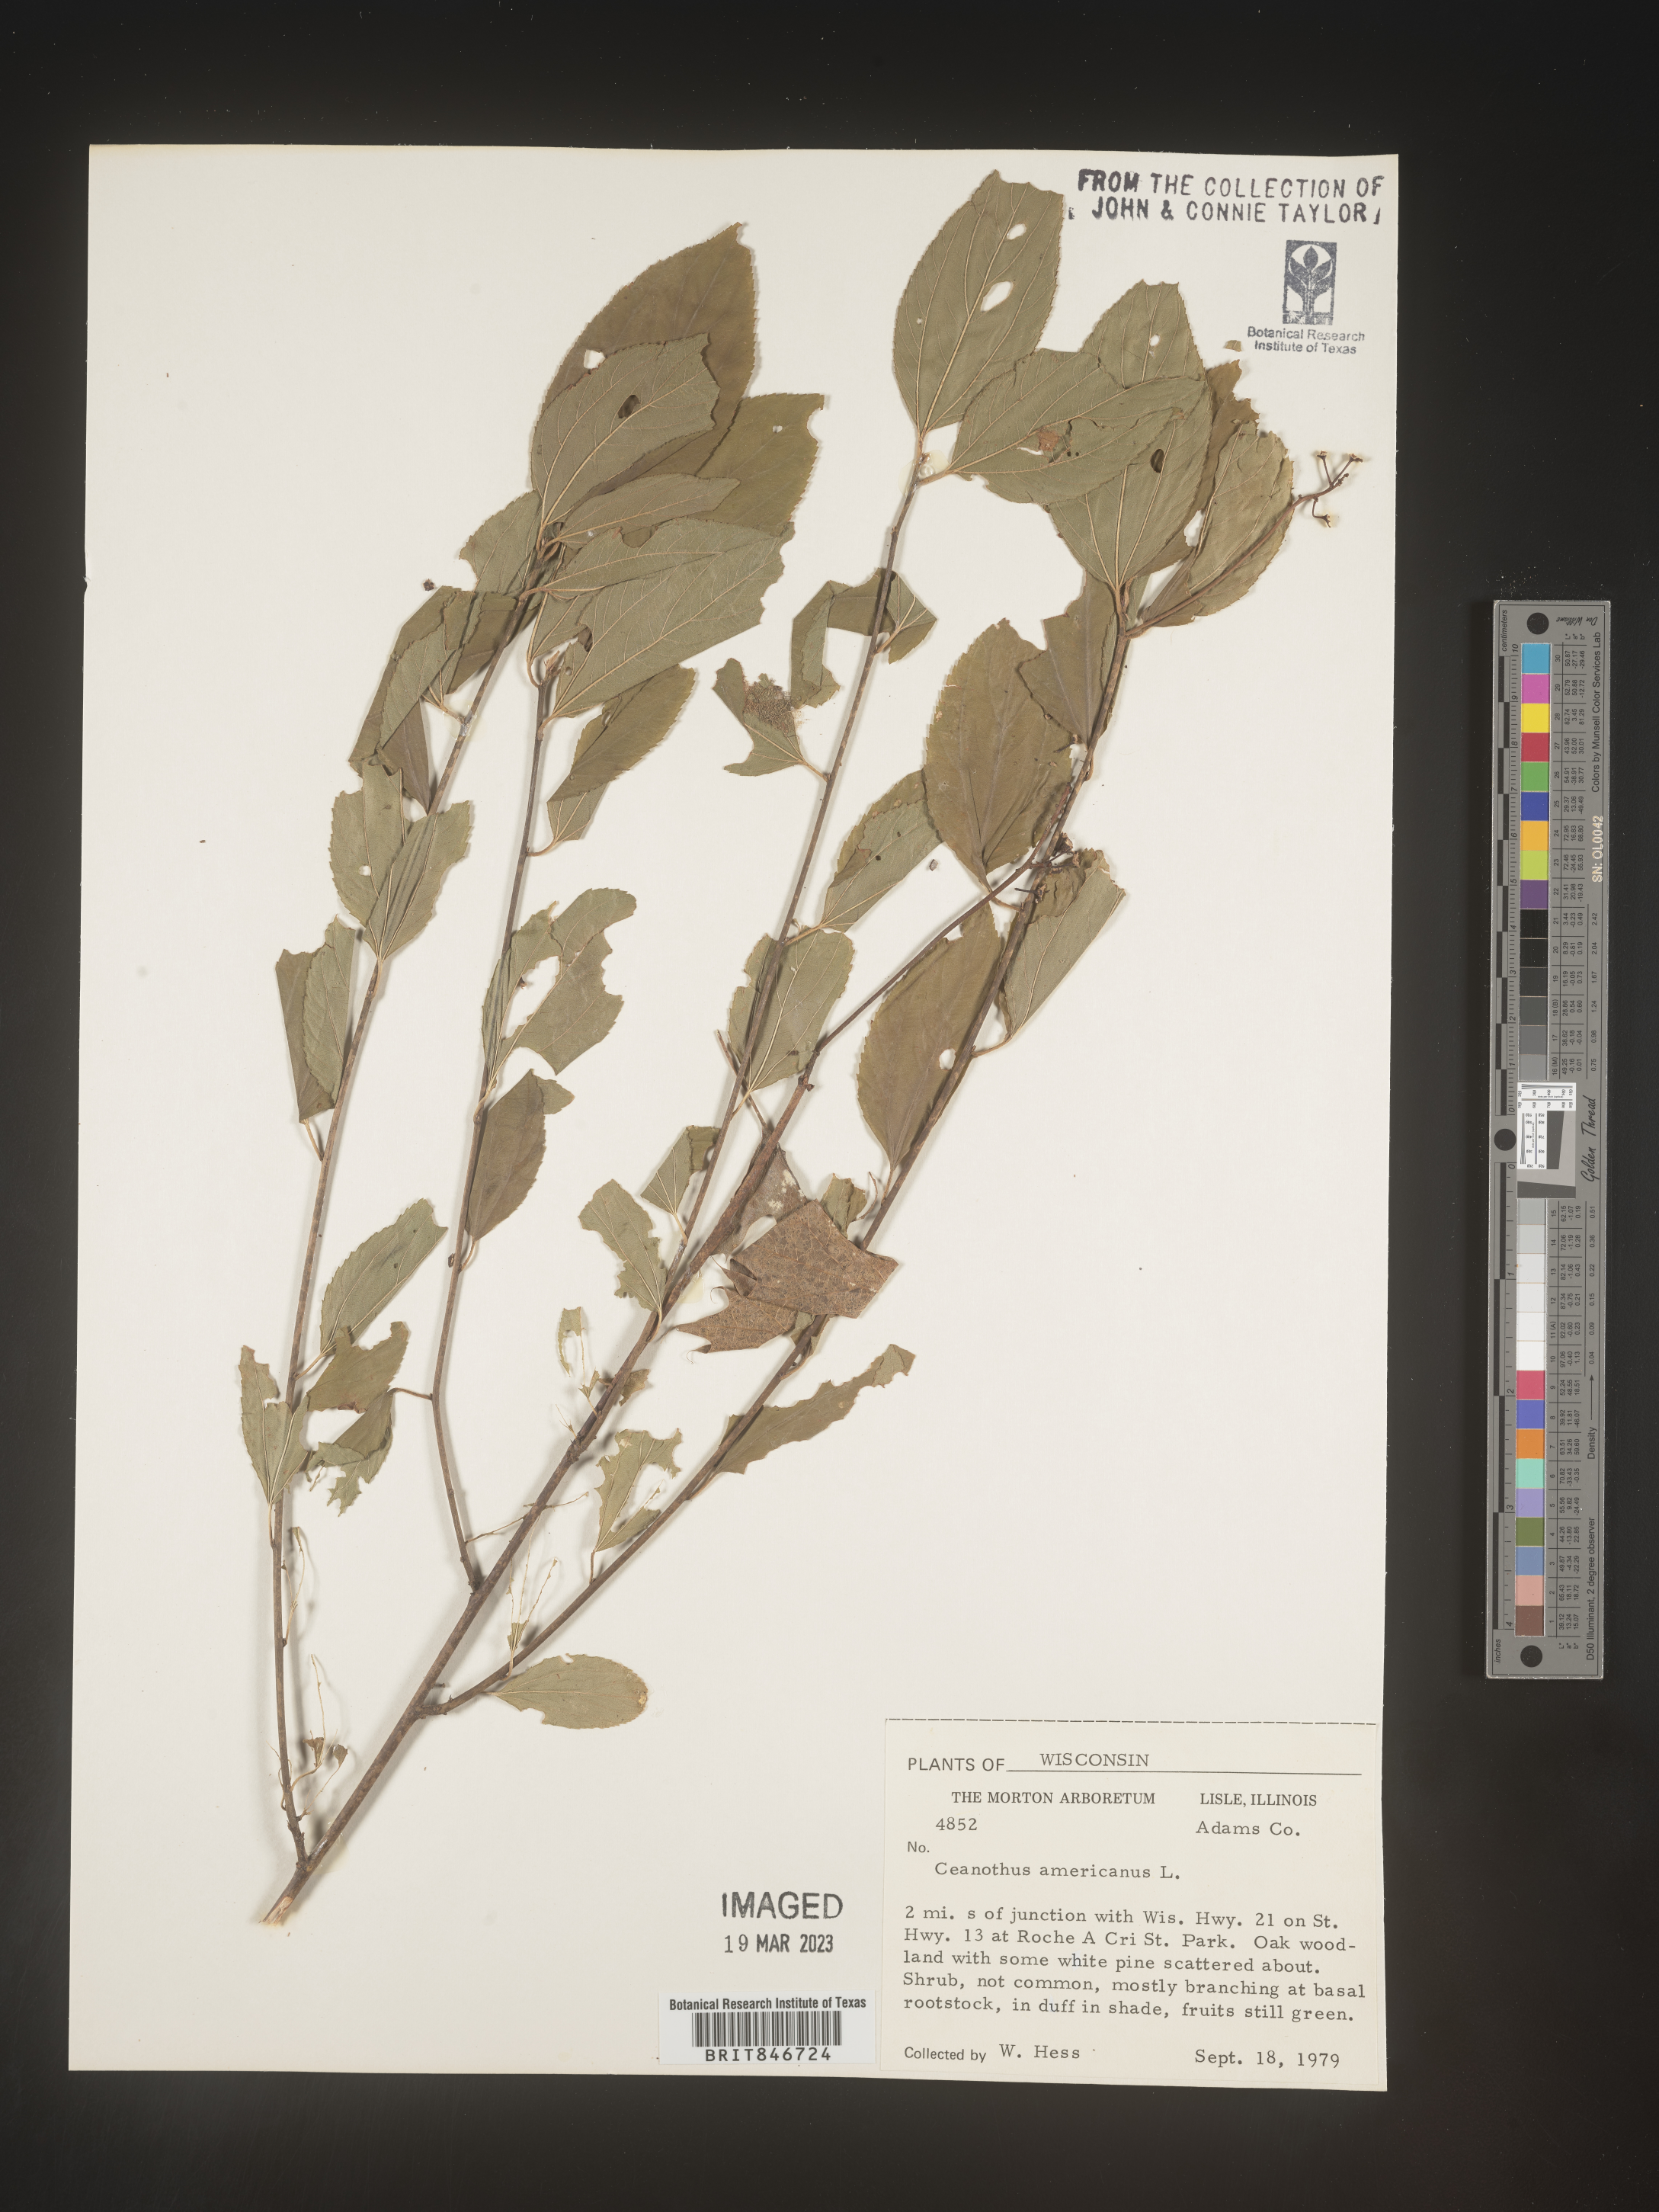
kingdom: Plantae
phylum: Tracheophyta
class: Magnoliopsida
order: Rosales
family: Rhamnaceae
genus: Ceanothus
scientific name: Ceanothus americanus
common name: Redroot
